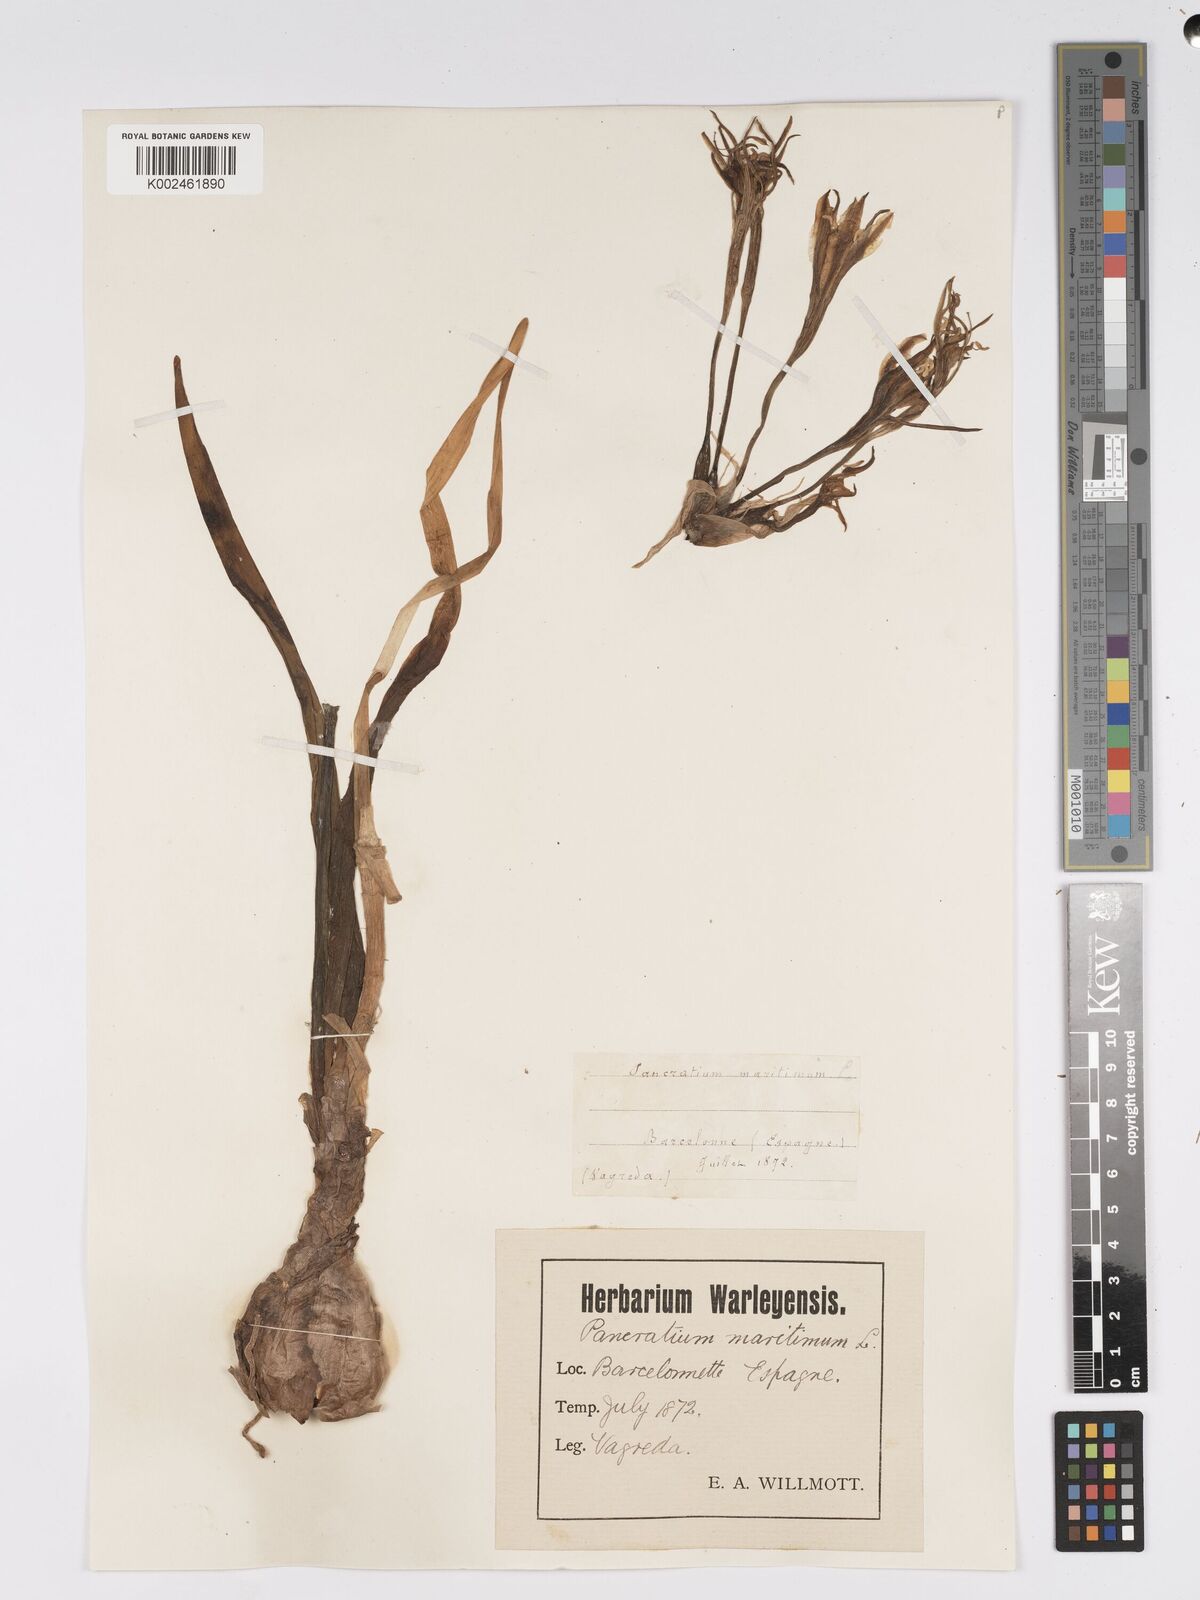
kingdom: Plantae
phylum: Tracheophyta
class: Liliopsida
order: Asparagales
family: Amaryllidaceae
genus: Pancratium
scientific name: Pancratium maritimum
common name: Sea-daffodil
